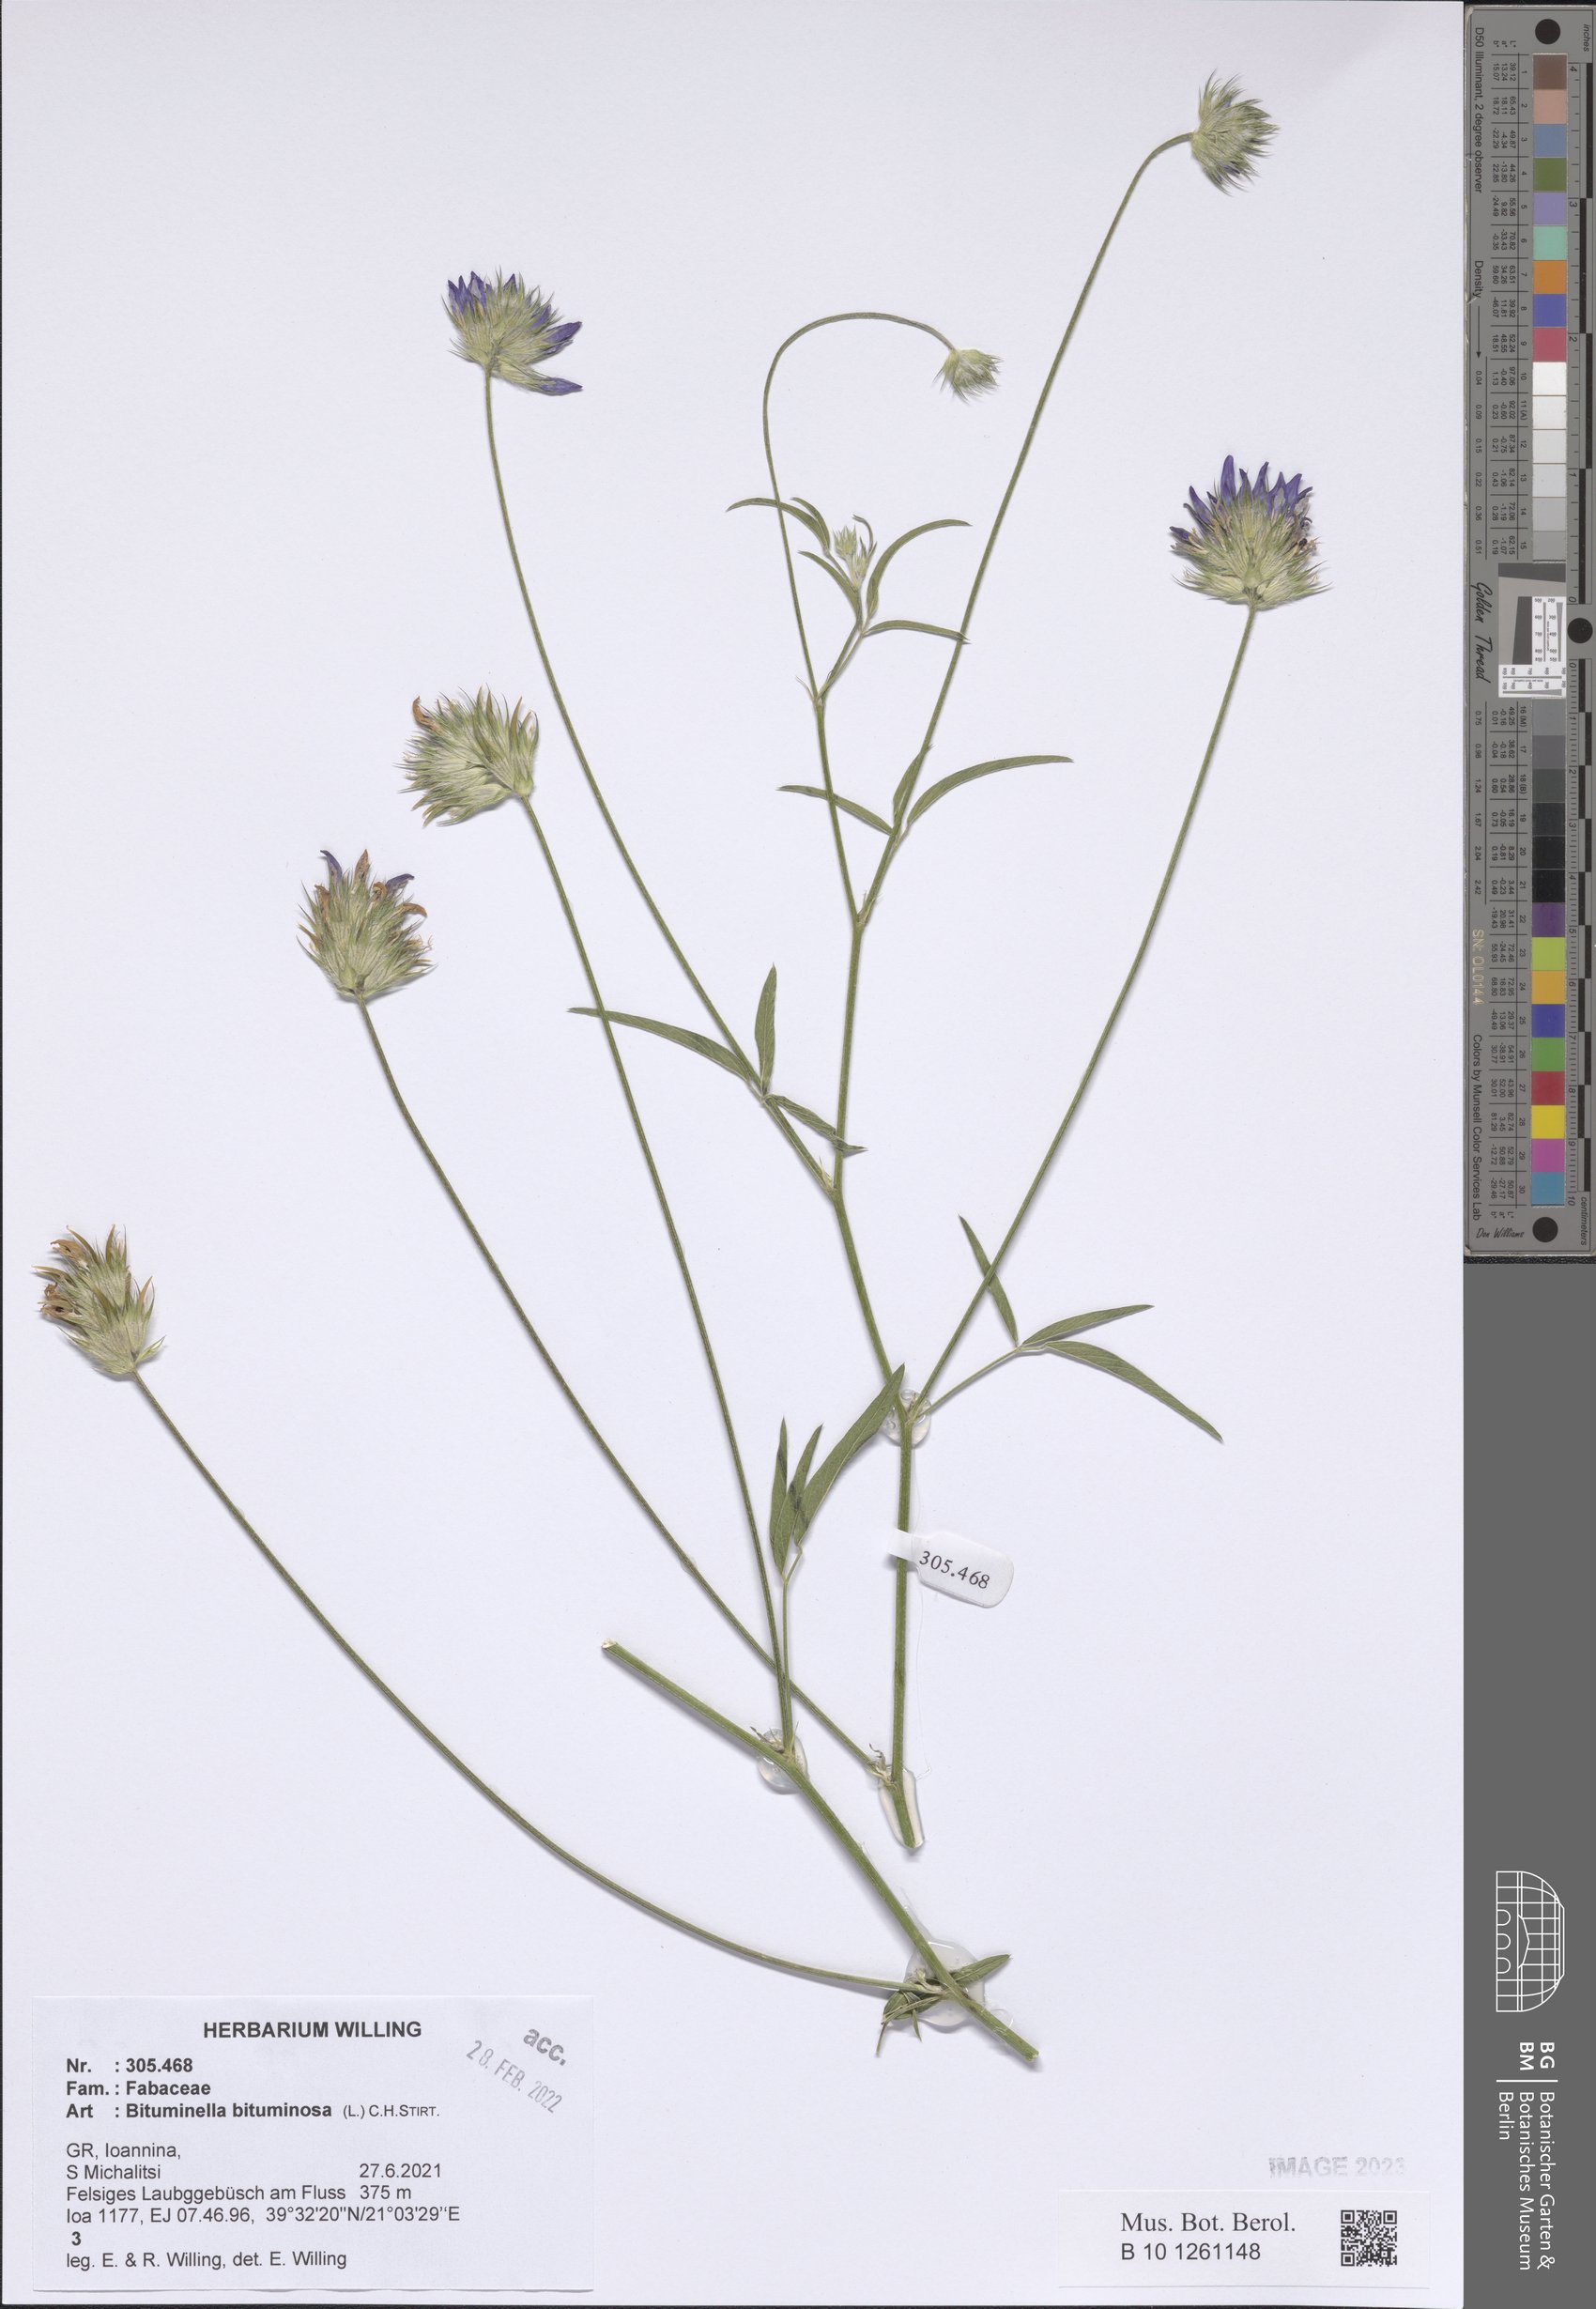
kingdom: Plantae
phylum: Tracheophyta
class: Magnoliopsida
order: Fabales
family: Fabaceae
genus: Bituminaria
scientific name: Bituminaria bituminosa
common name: Arabian pea
